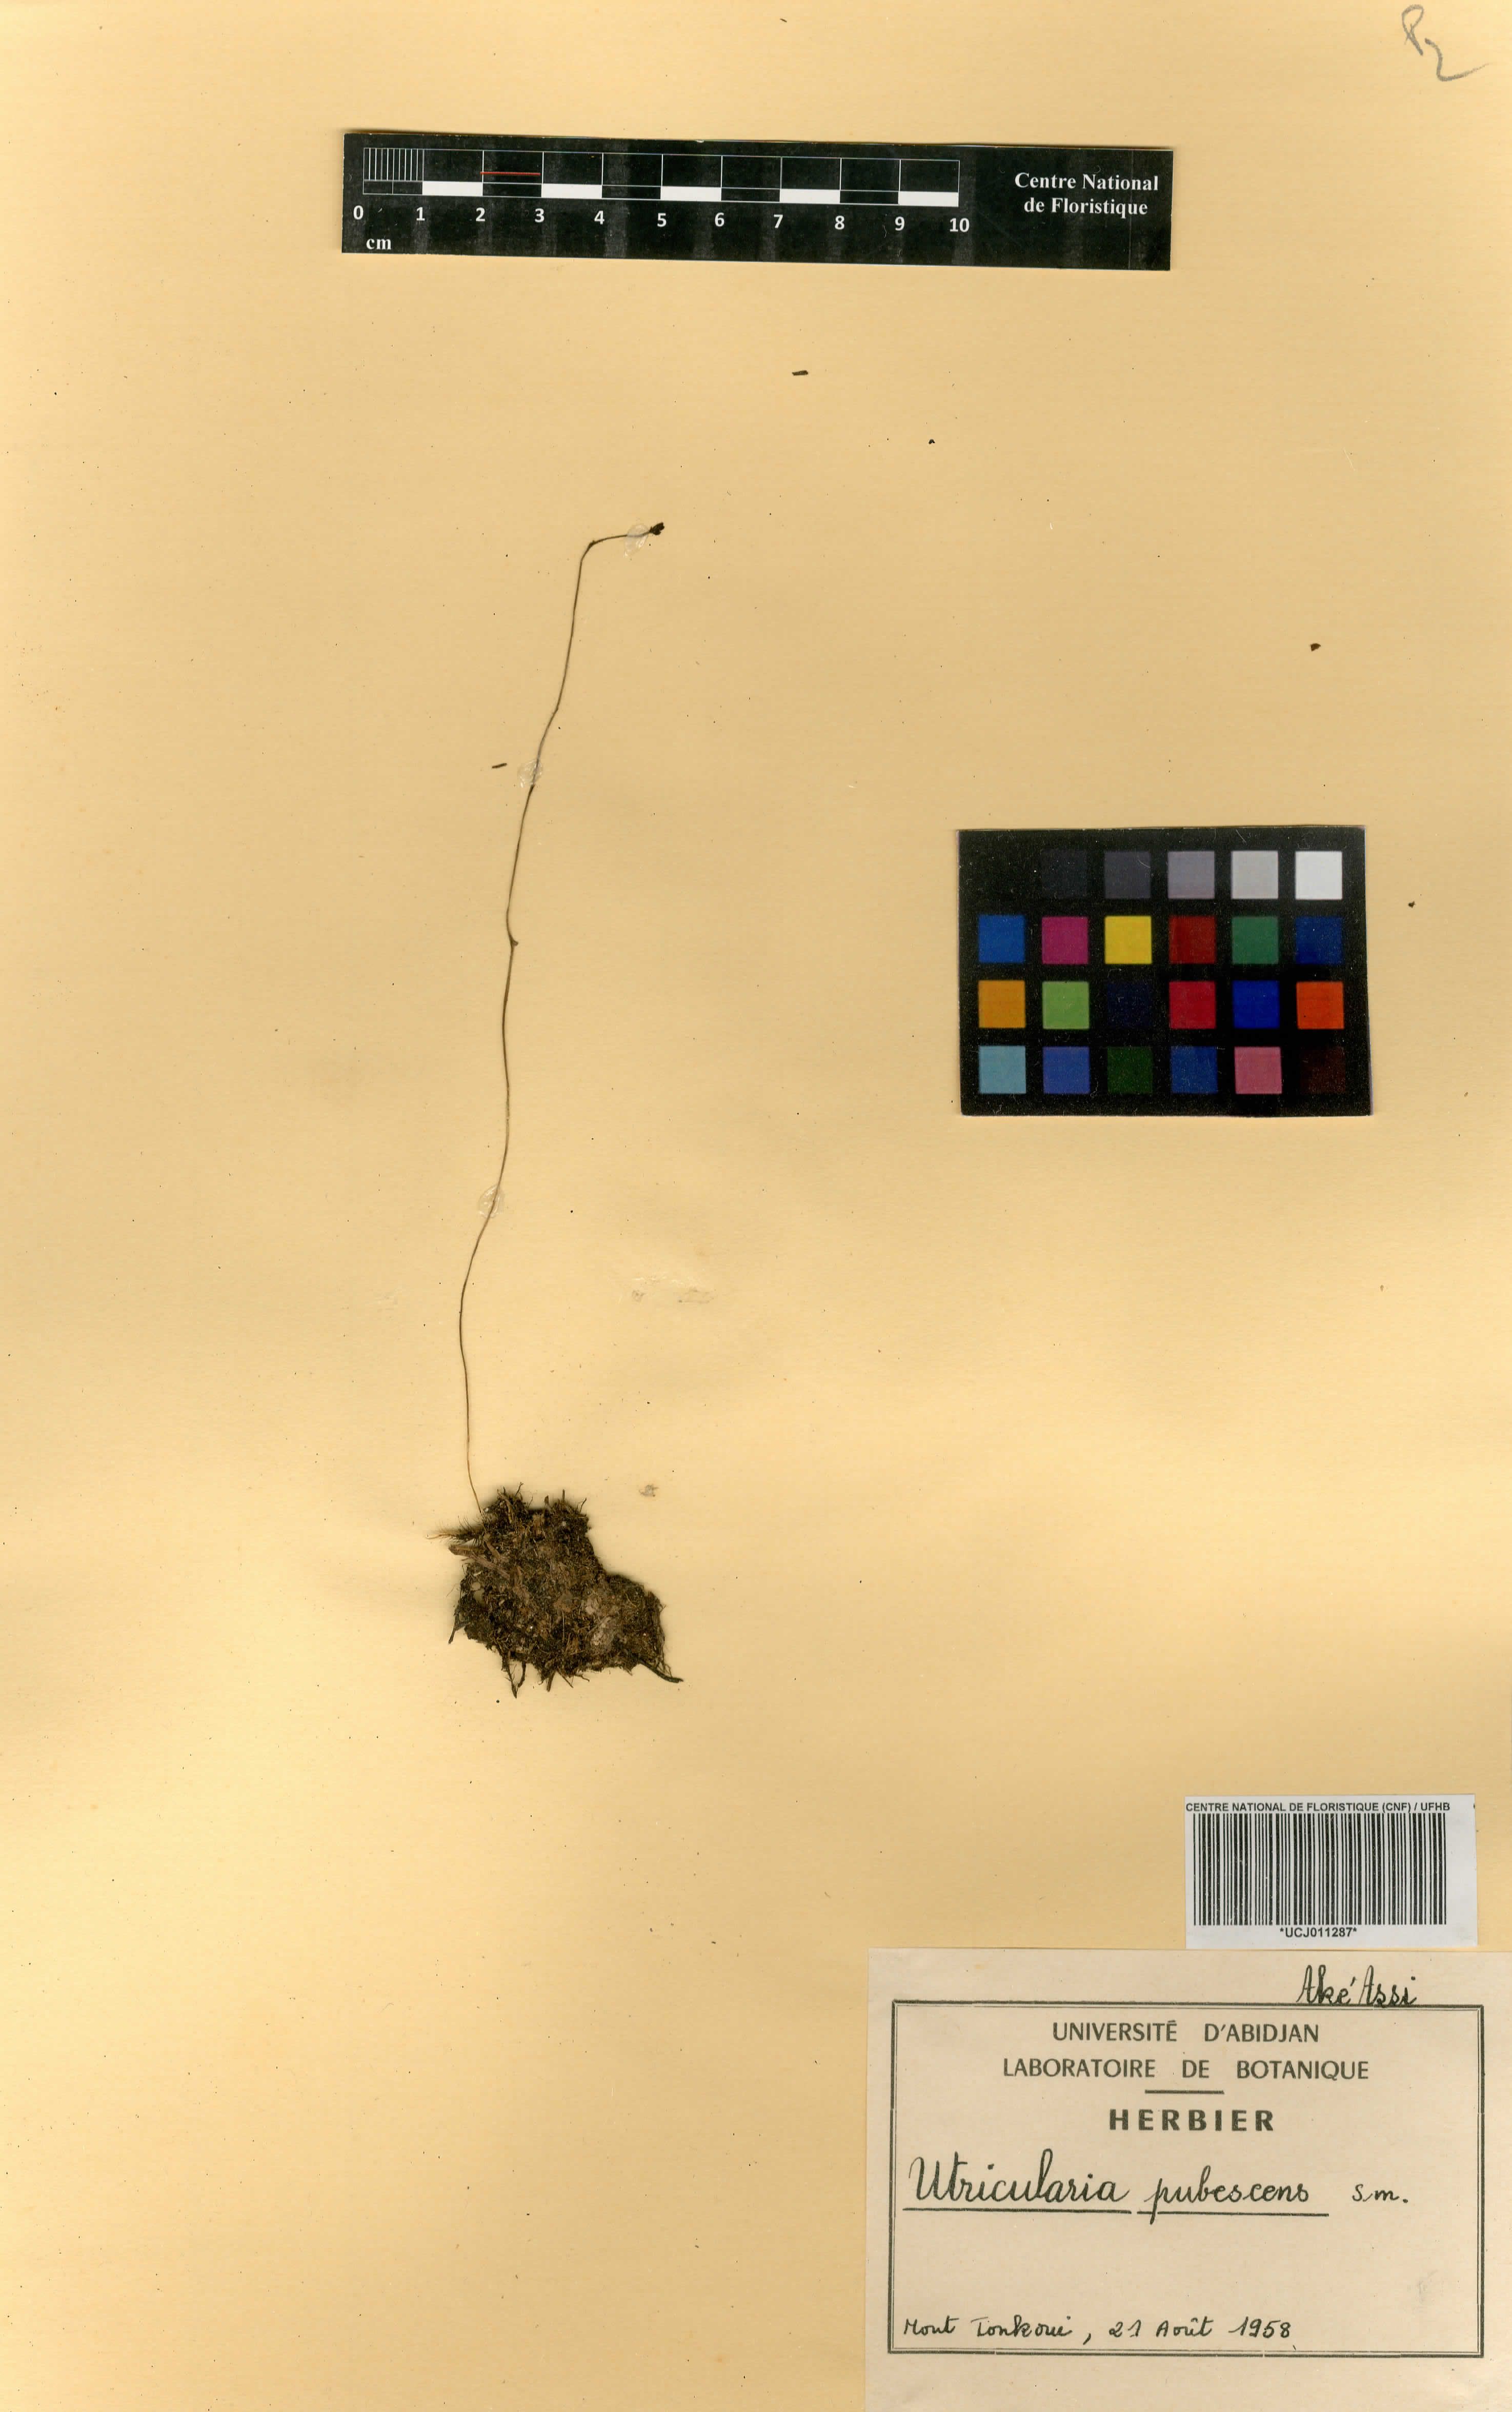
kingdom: Plantae
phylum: Tracheophyta
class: Magnoliopsida
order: Lamiales
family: Lentibulariaceae
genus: Utricularia
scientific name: Utricularia pubescens
